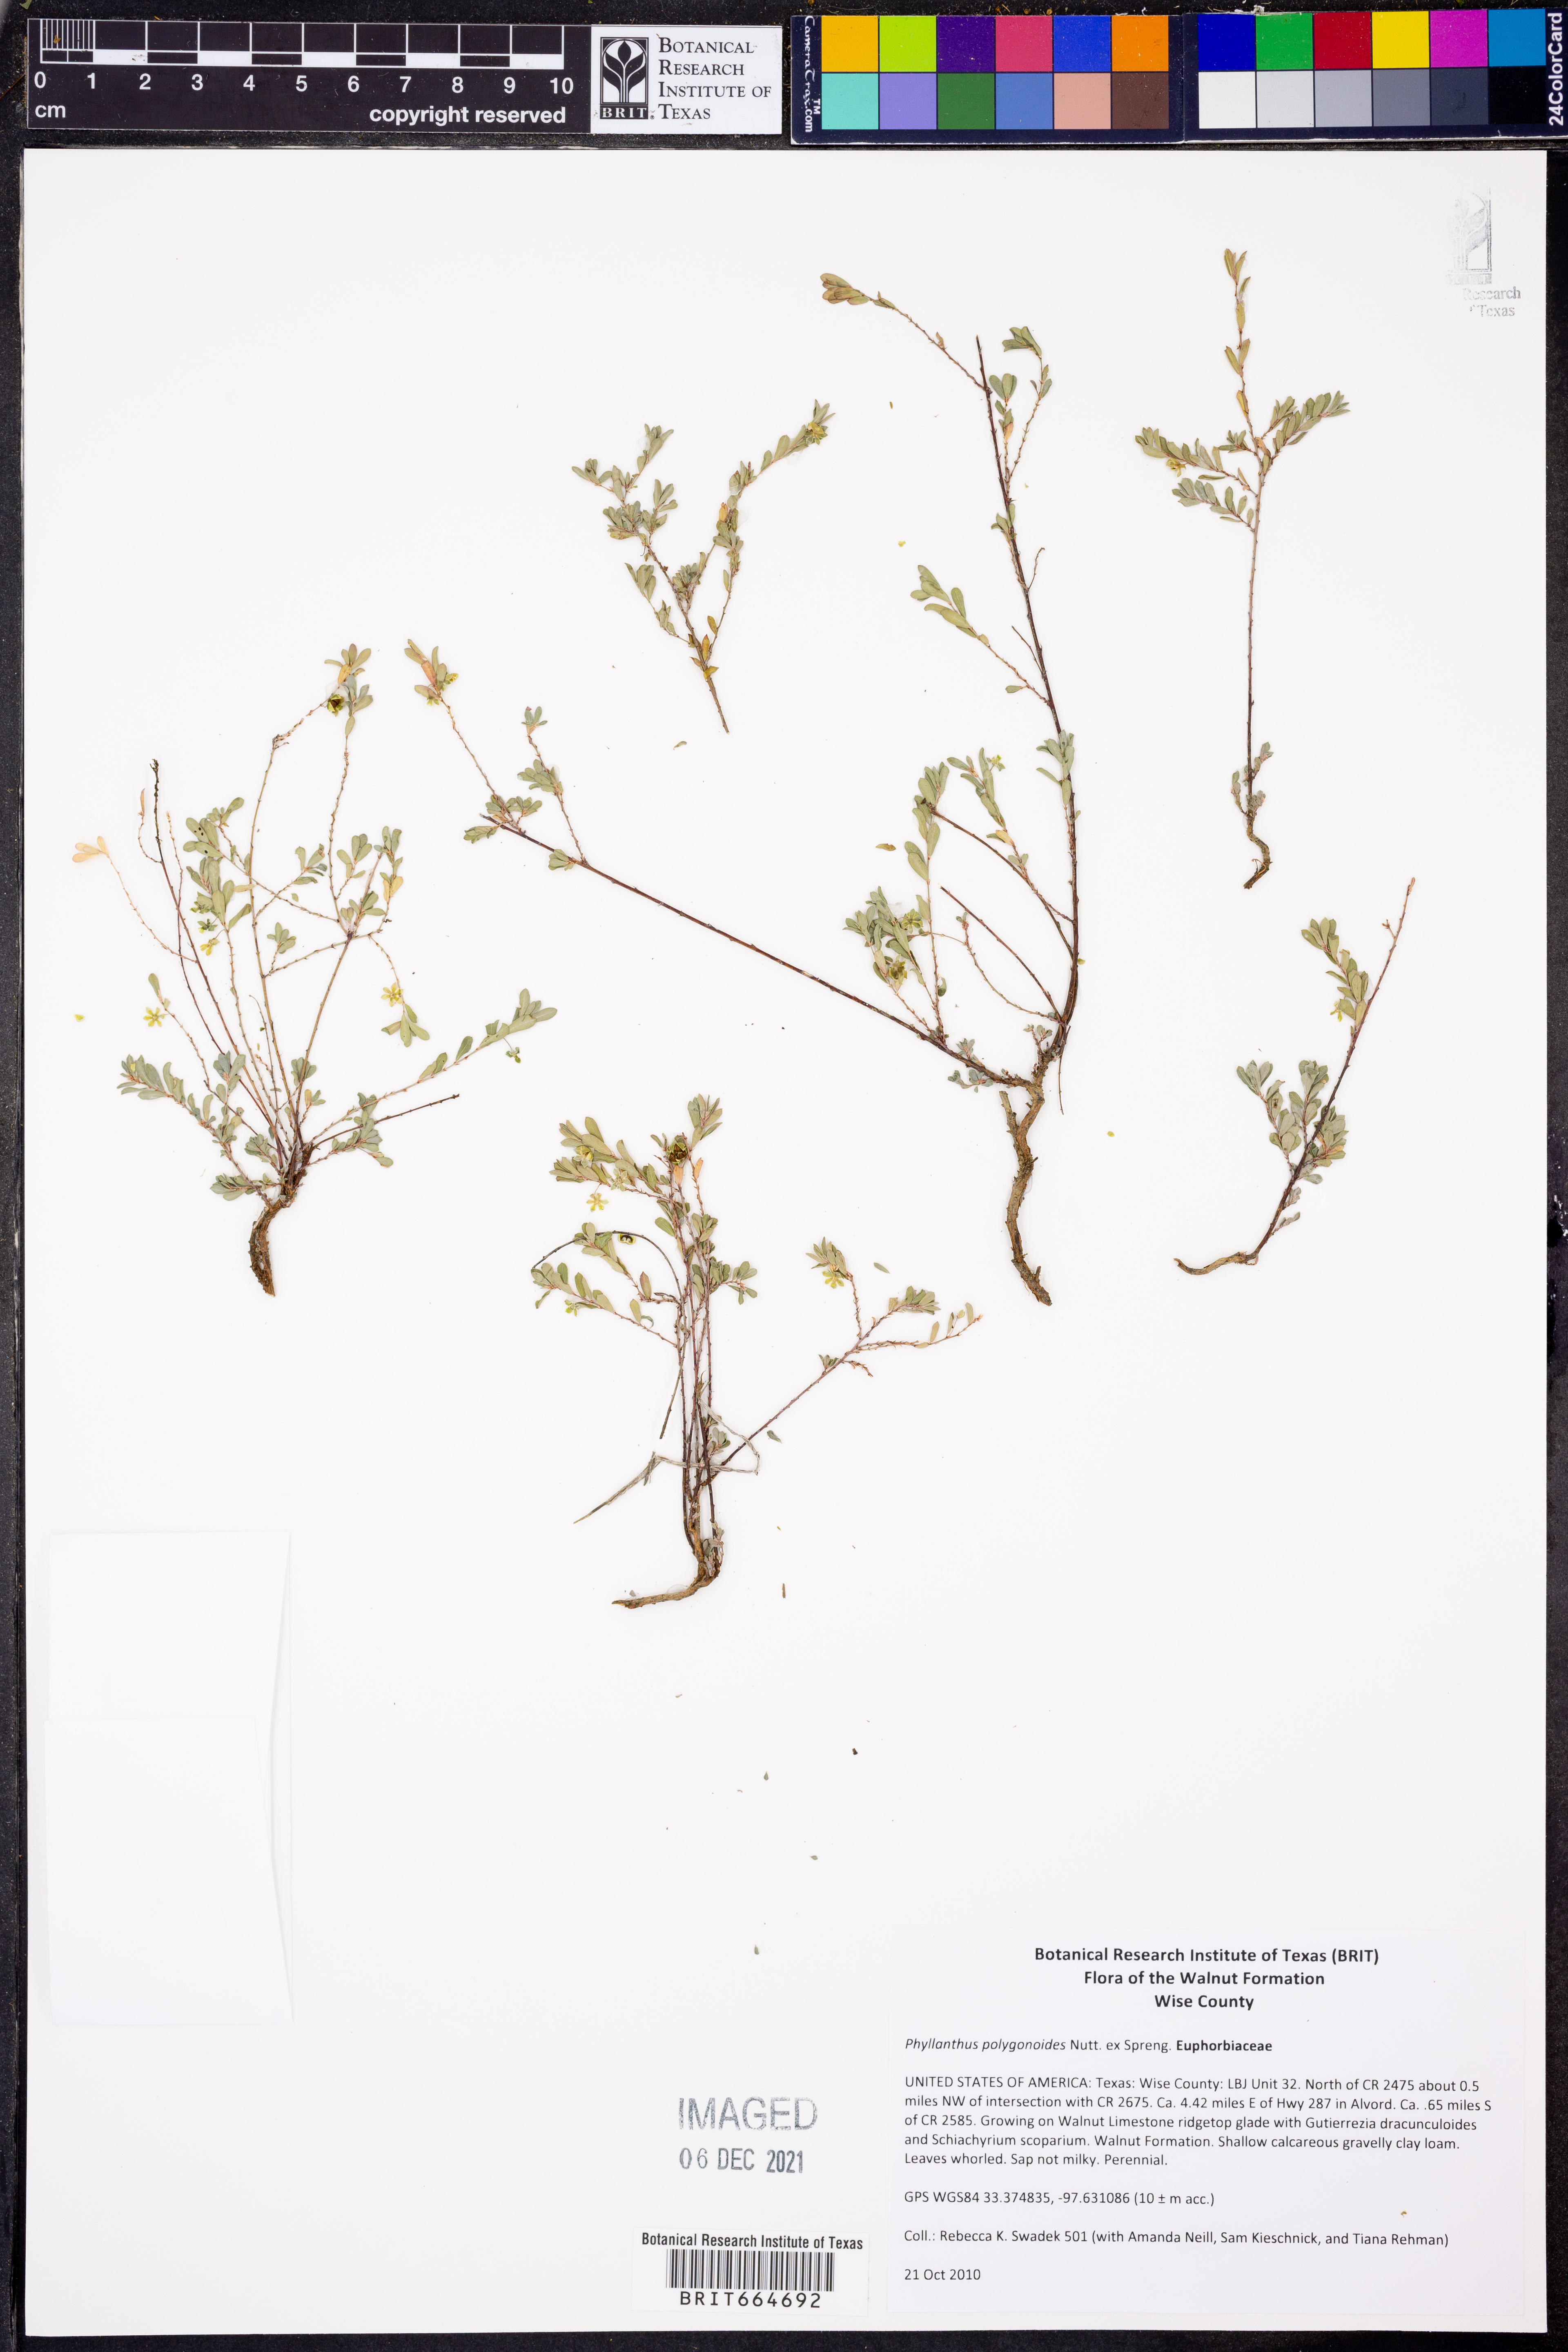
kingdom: Plantae
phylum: Tracheophyta
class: Magnoliopsida
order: Malpighiales
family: Phyllanthaceae
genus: Phyllanthus
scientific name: Phyllanthus polygonoides
